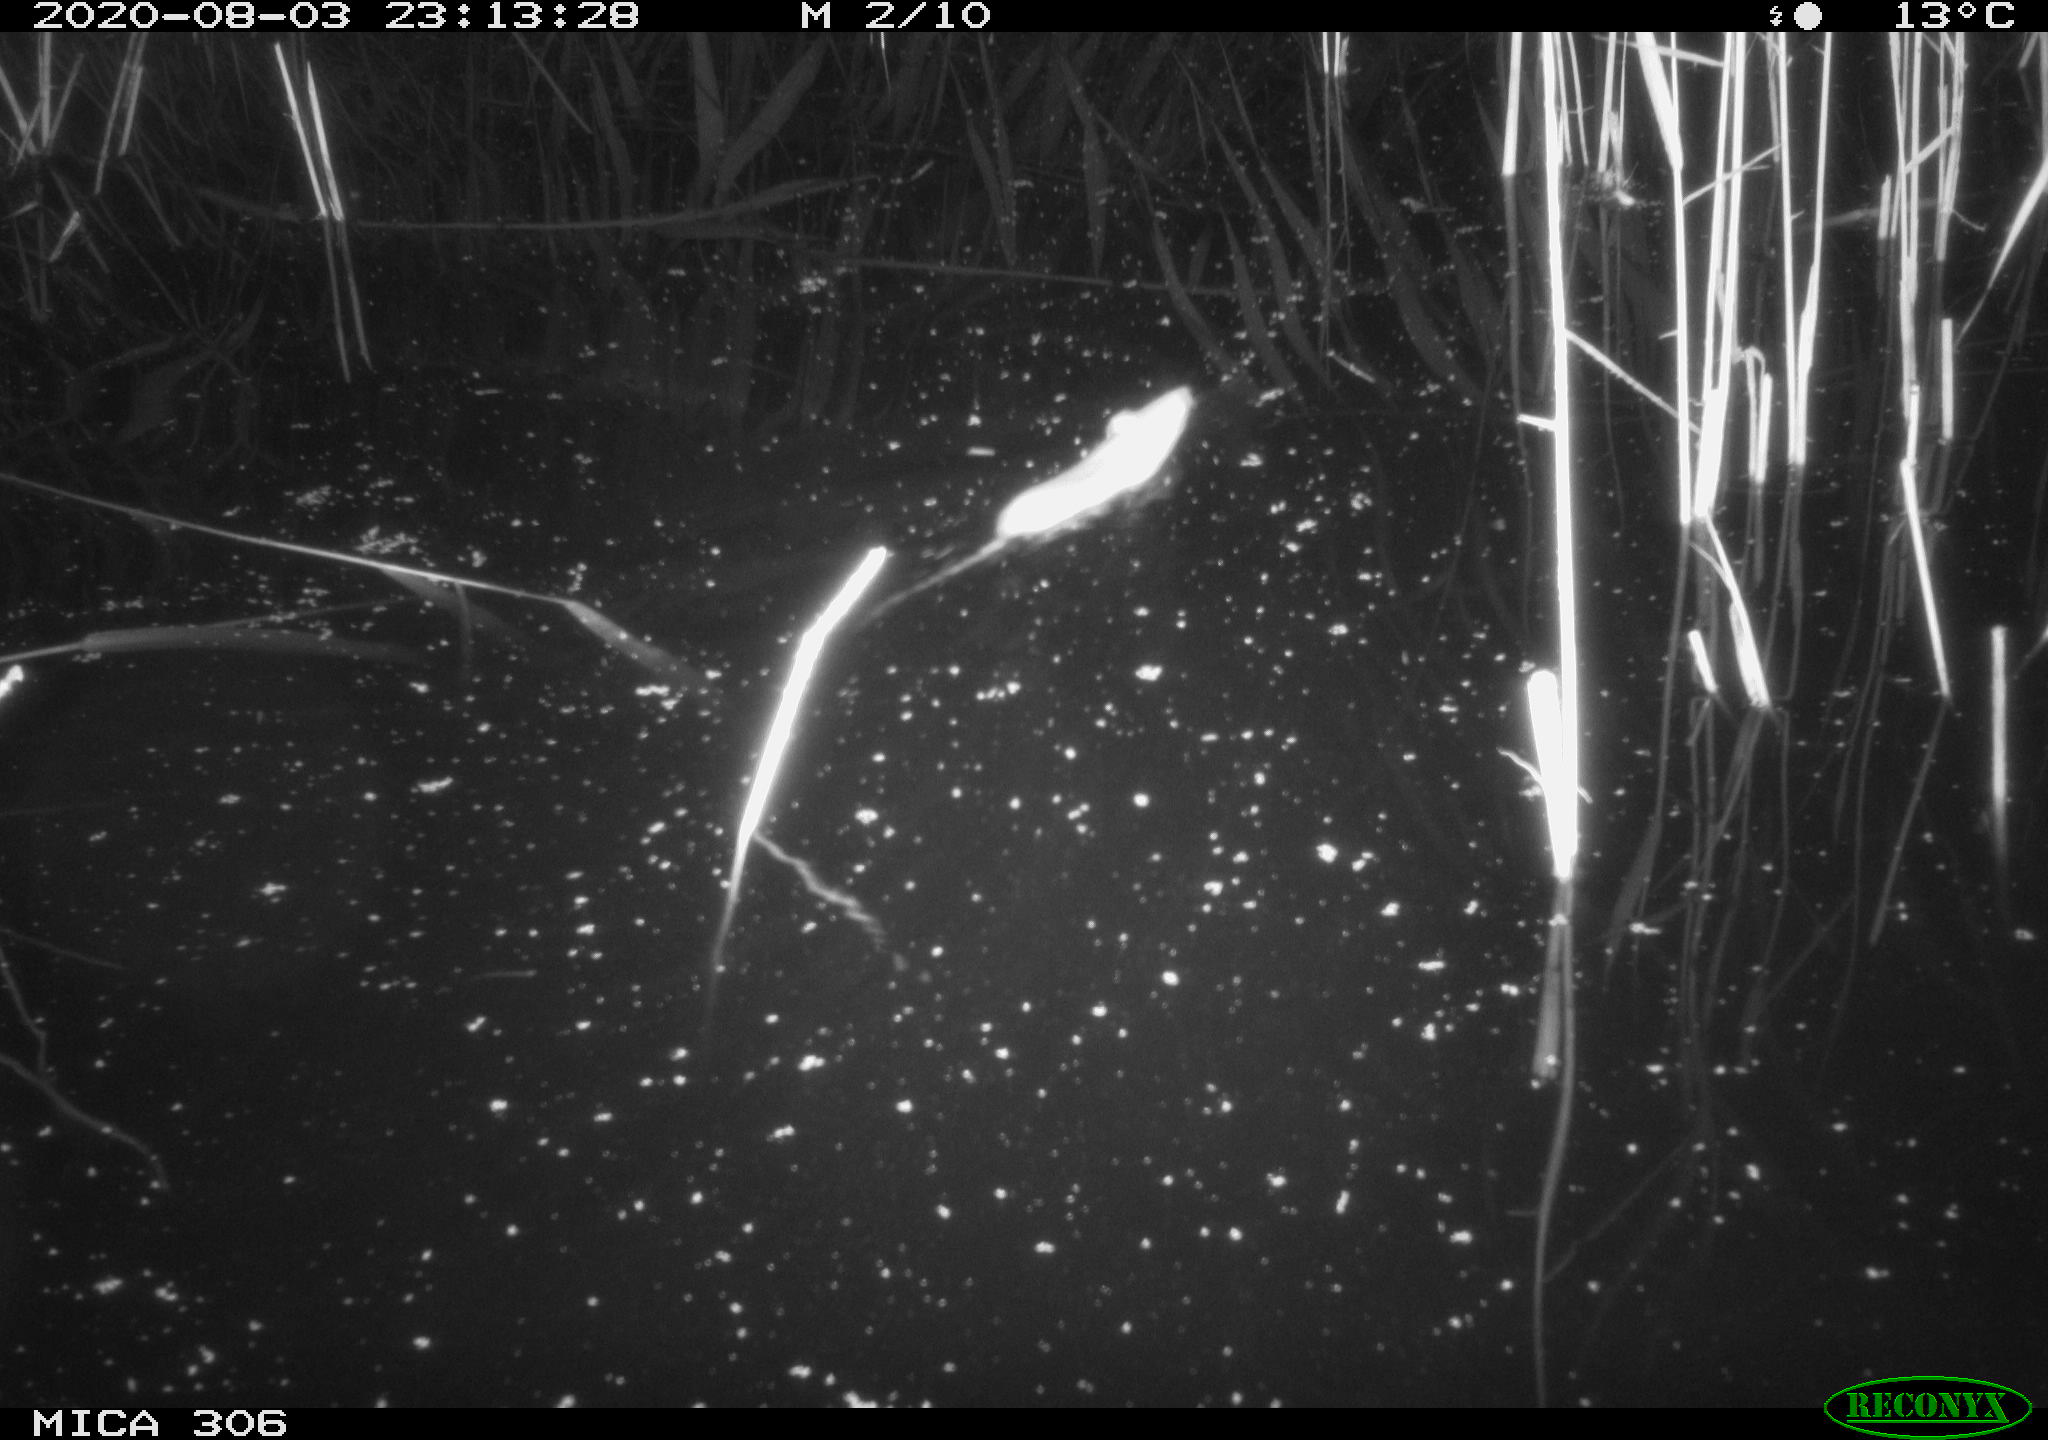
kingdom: Animalia
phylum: Chordata
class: Mammalia
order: Rodentia
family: Muridae
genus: Rattus
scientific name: Rattus norvegicus
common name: Brown rat
